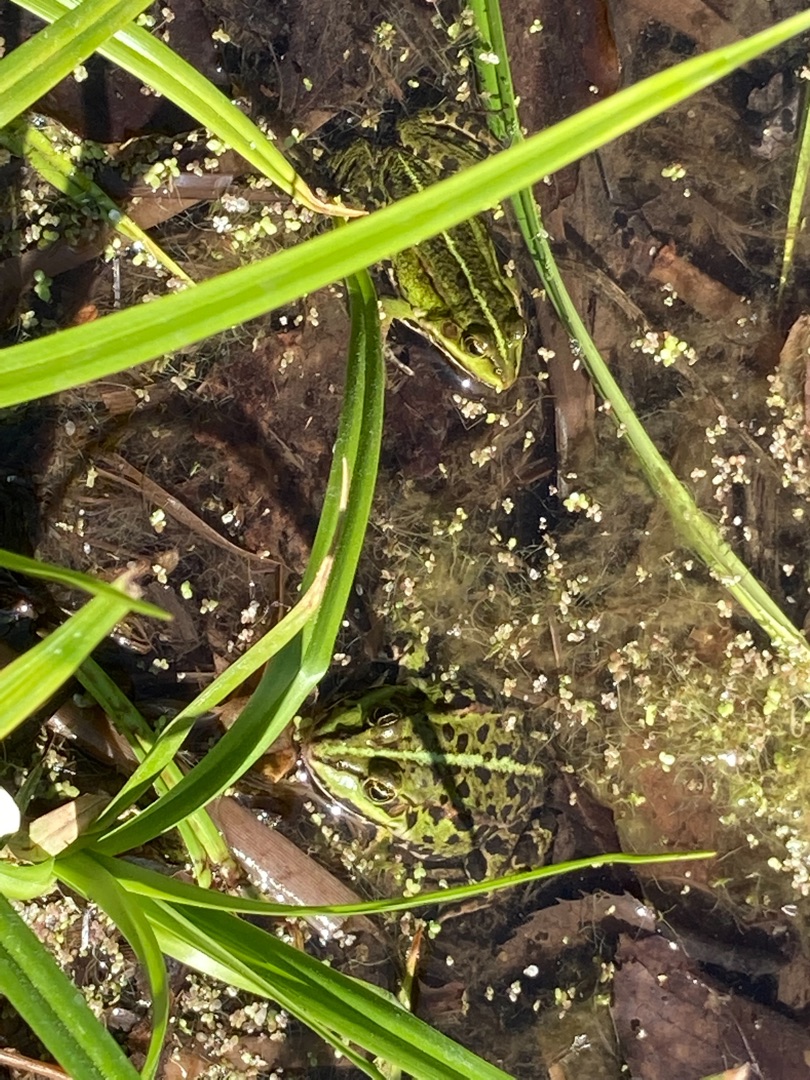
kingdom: Animalia
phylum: Chordata
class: Amphibia
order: Anura
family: Ranidae
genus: Pelophylax
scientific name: Pelophylax lessonae
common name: Grøn frø
